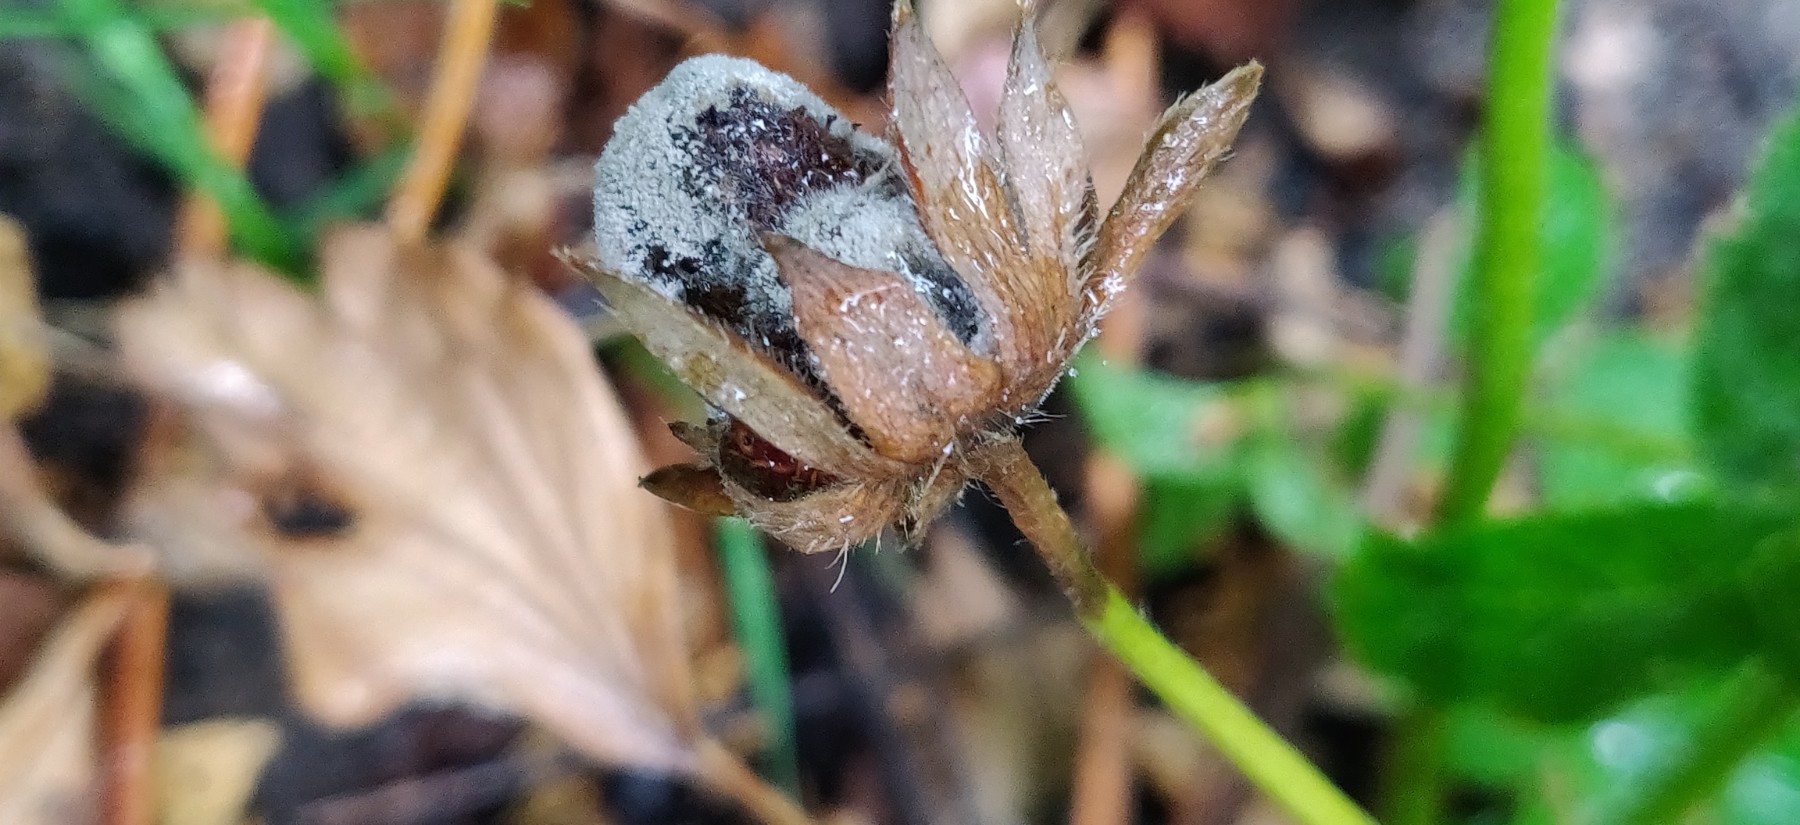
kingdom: Fungi
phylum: Ascomycota
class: Leotiomycetes
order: Helotiales
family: Sclerotiniaceae
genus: Botrytis
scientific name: Botrytis cinerea
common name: Grey mould
